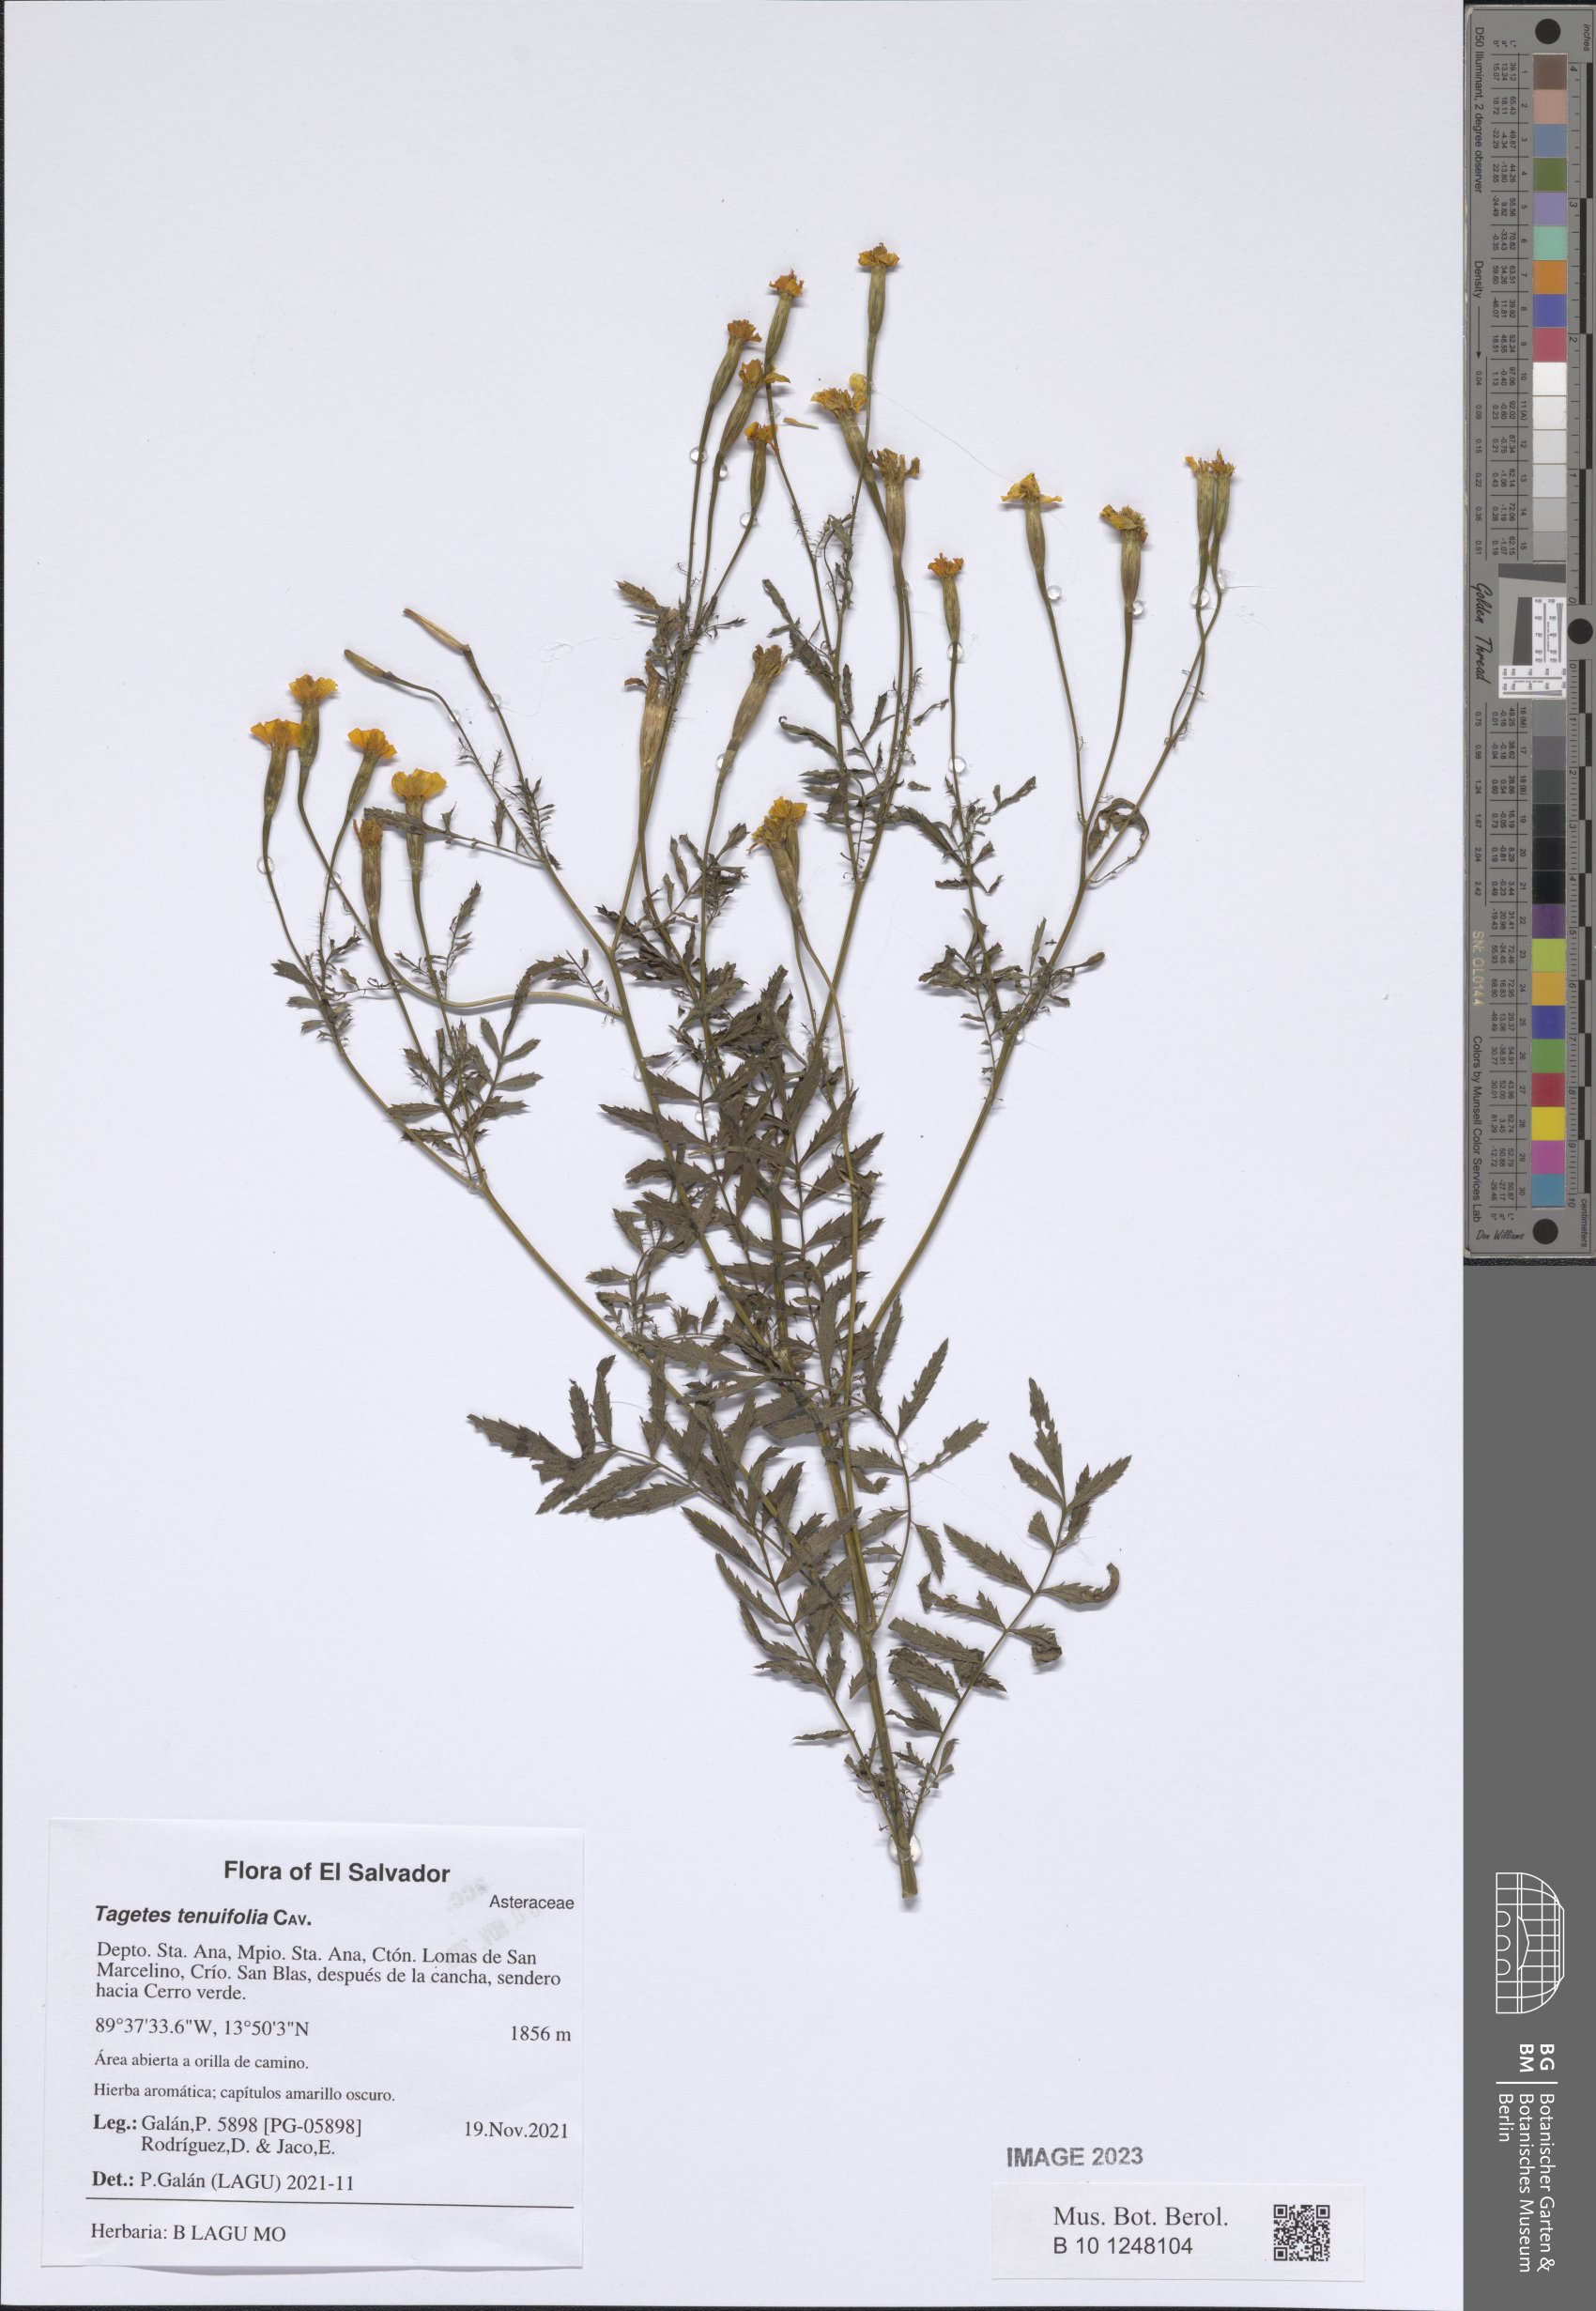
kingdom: Plantae
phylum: Tracheophyta
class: Magnoliopsida
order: Asterales
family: Asteraceae
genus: Tagetes
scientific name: Tagetes tenuifolia
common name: Signet marigold
